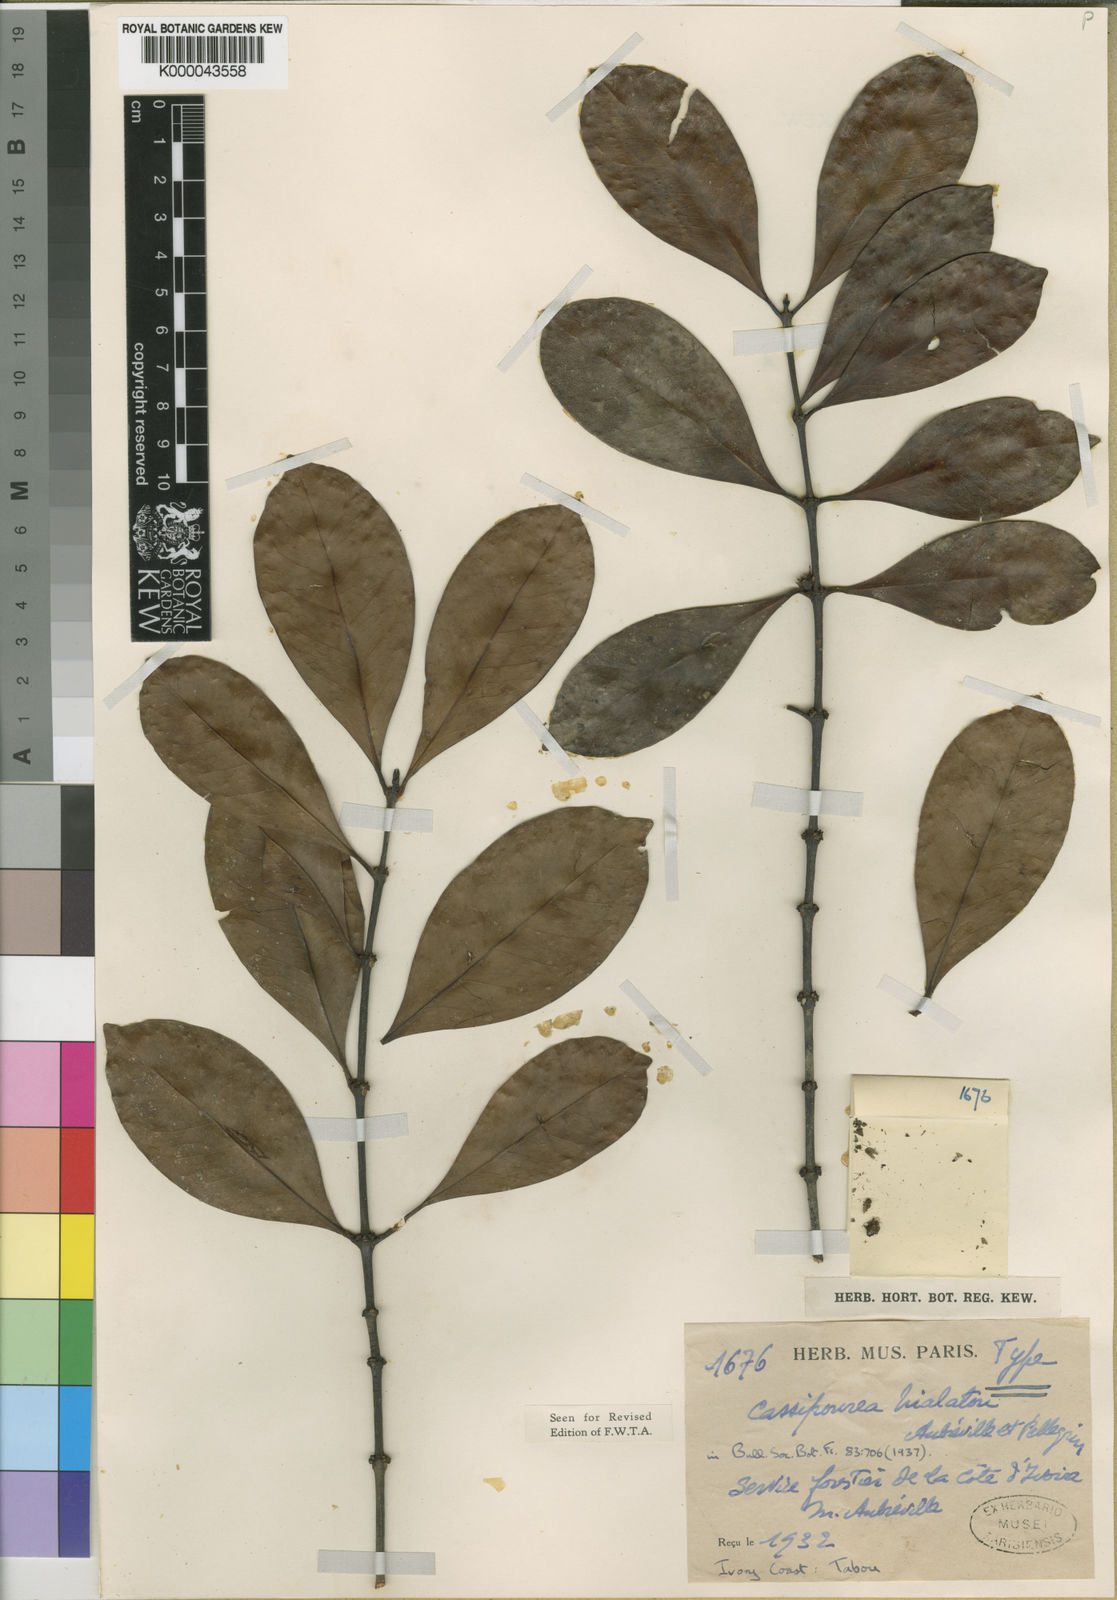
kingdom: Plantae
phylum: Tracheophyta
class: Magnoliopsida
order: Malpighiales
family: Rhizophoraceae
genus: Cassipourea
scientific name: Cassipourea
